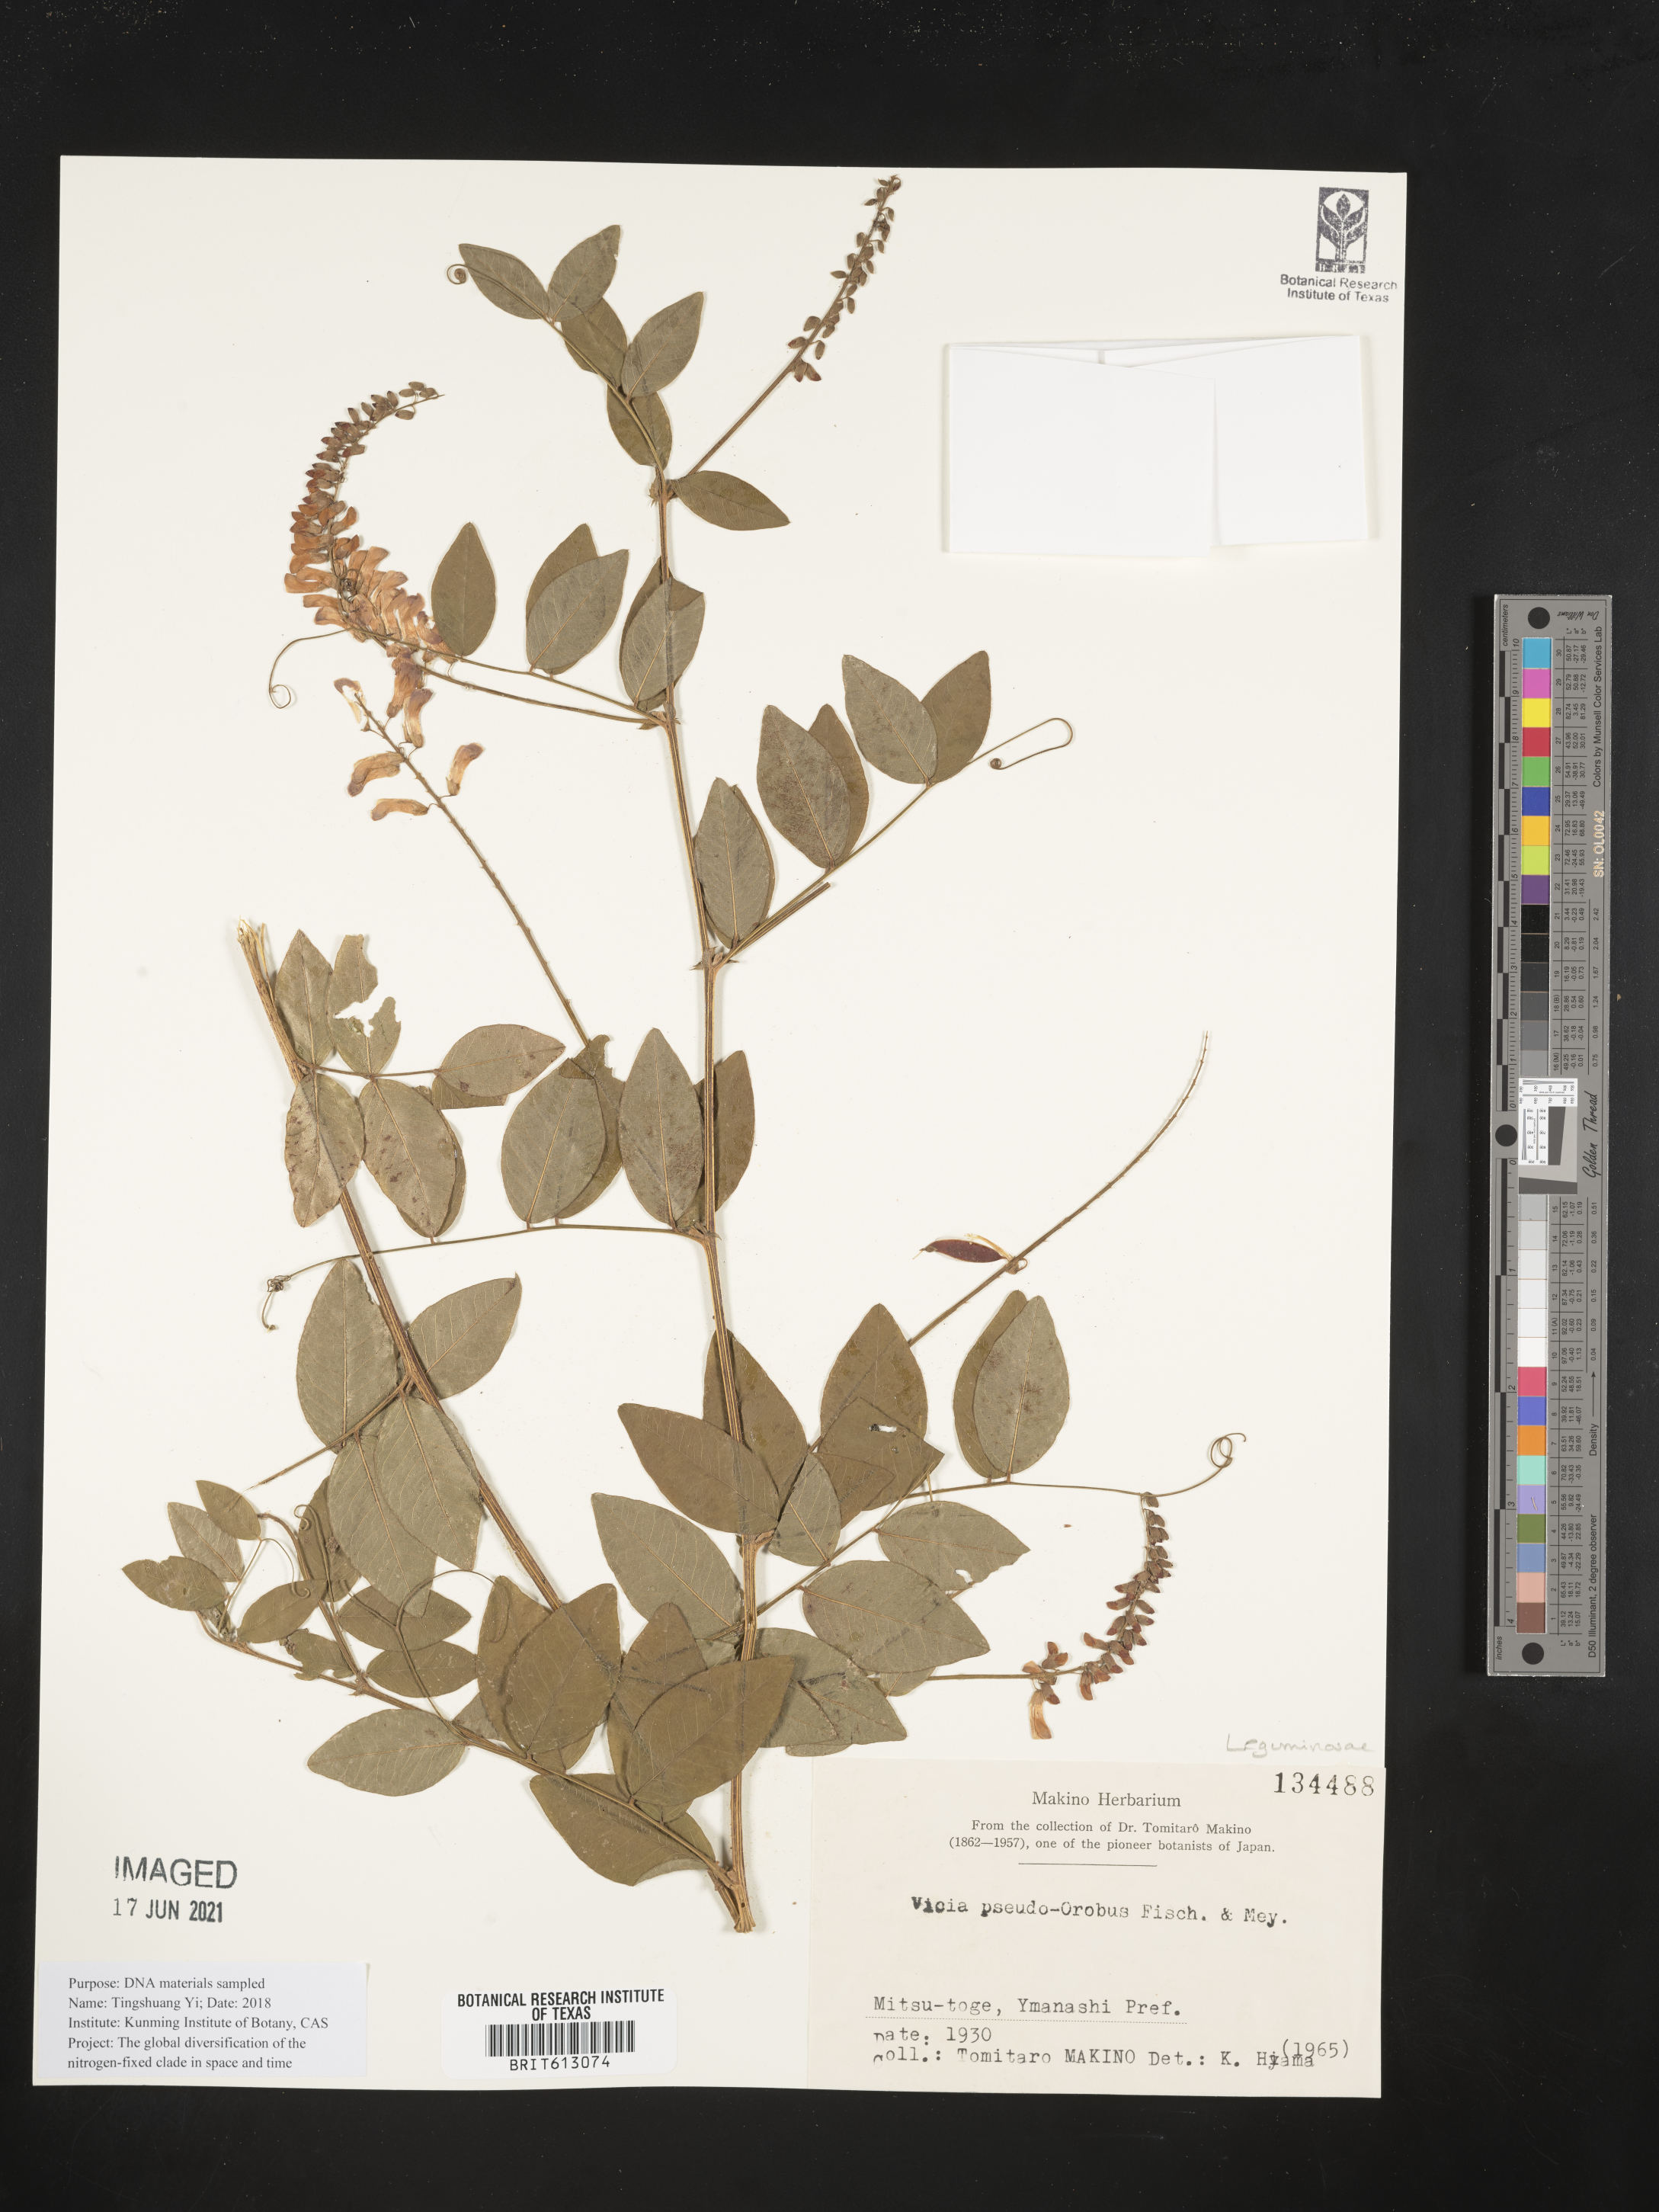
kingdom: Plantae
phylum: Tracheophyta
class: Magnoliopsida
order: Fabales
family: Fabaceae
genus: Vicia
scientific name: Vicia pseudo-orobus
